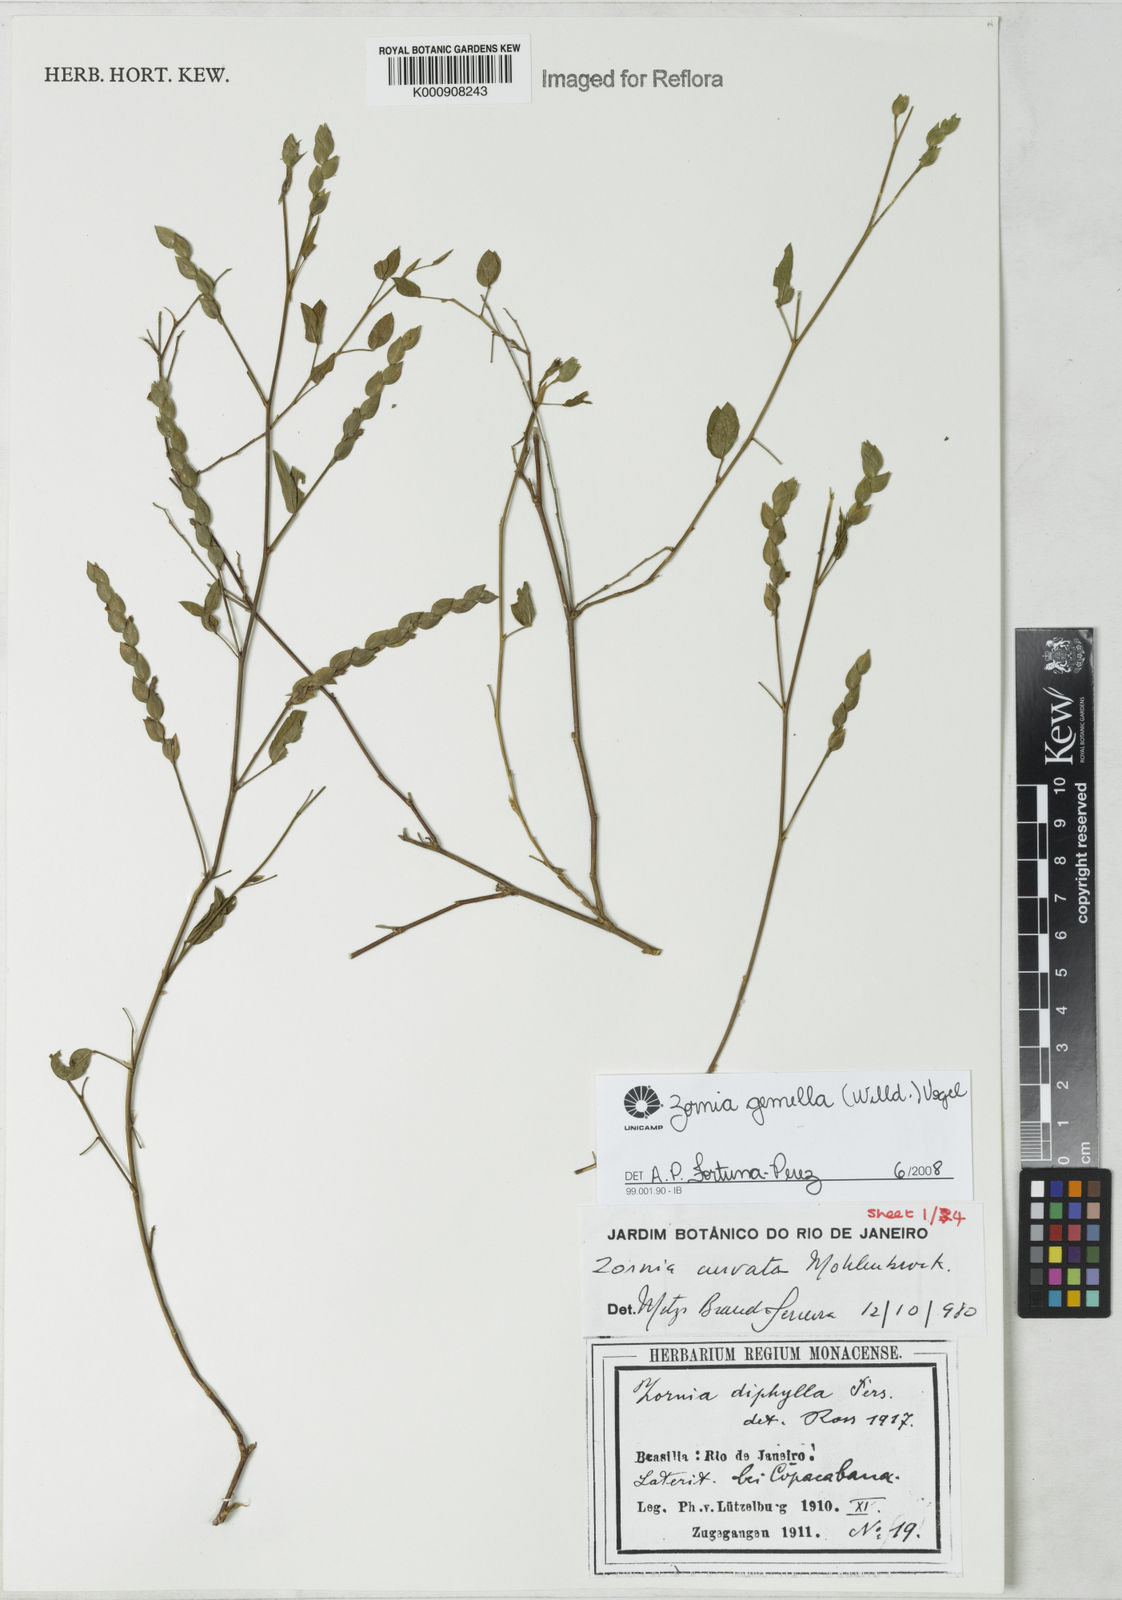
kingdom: Plantae
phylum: Tracheophyta
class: Magnoliopsida
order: Fabales
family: Fabaceae
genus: Zornia
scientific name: Zornia latifolia
